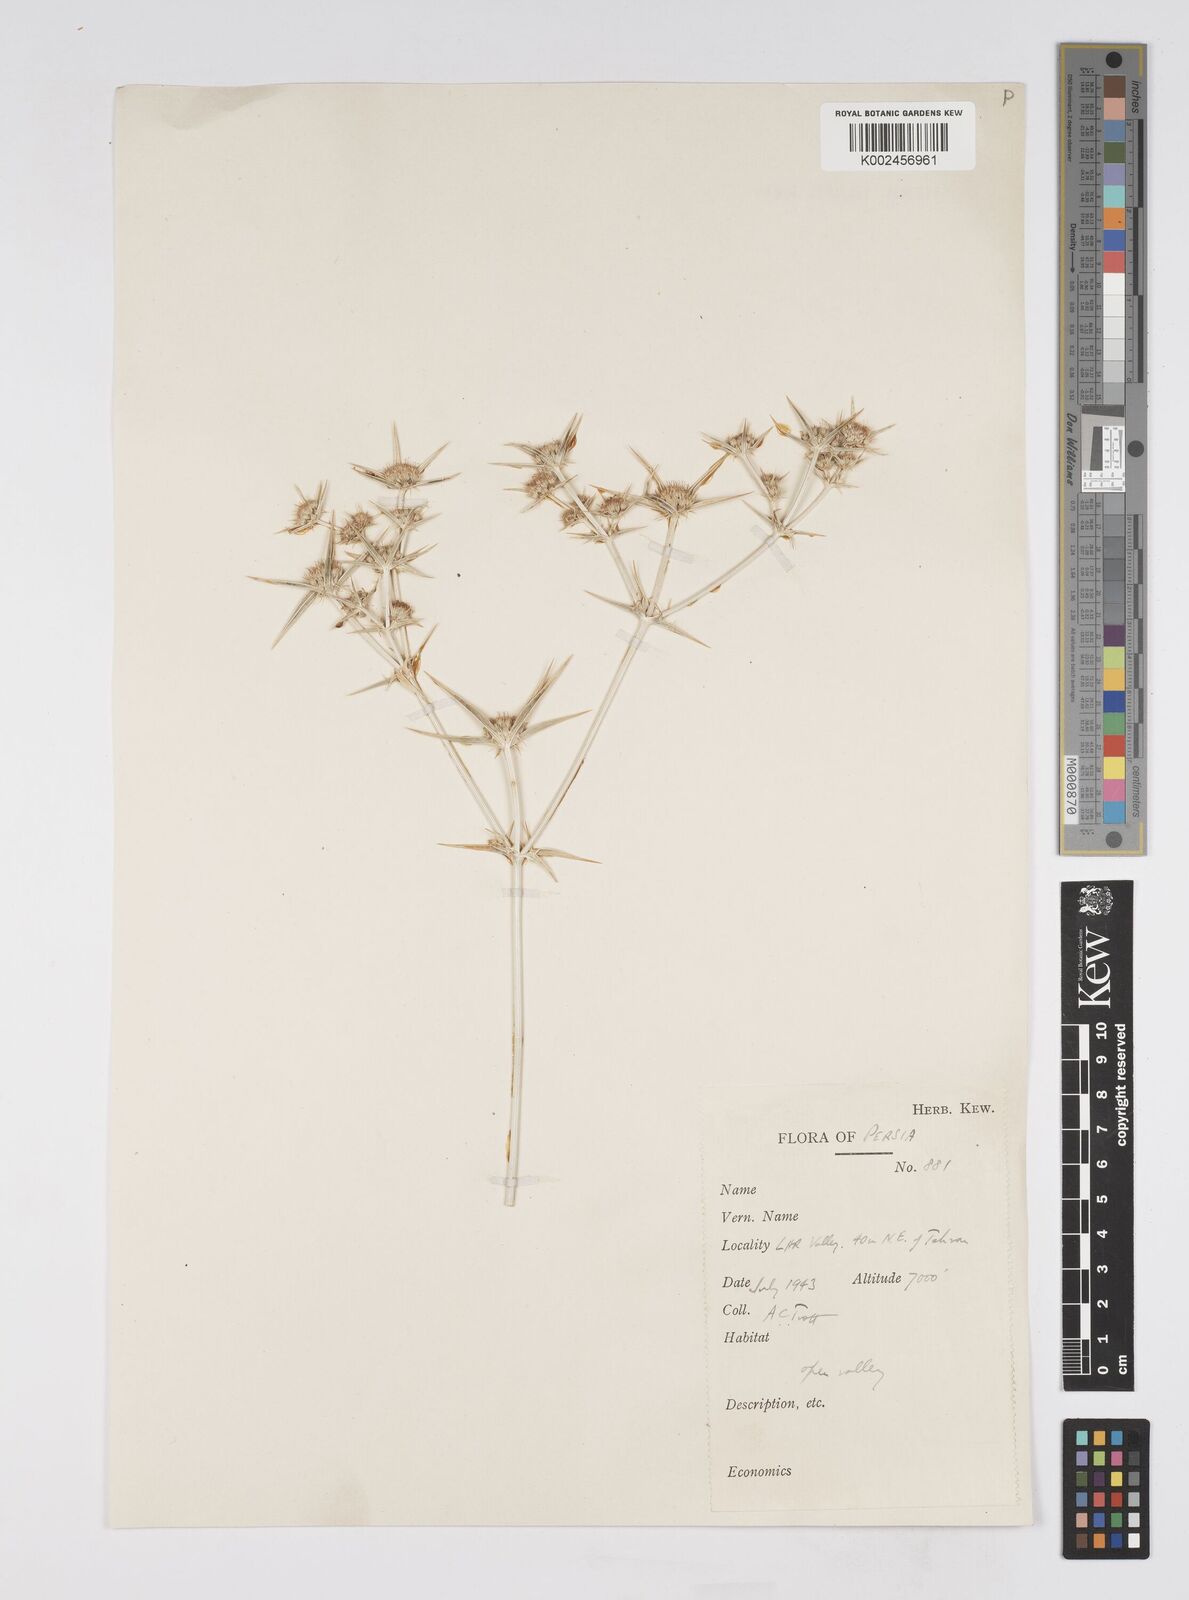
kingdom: Plantae
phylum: Tracheophyta
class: Magnoliopsida
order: Apiales
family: Apiaceae
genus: Eryngium
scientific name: Eryngium
